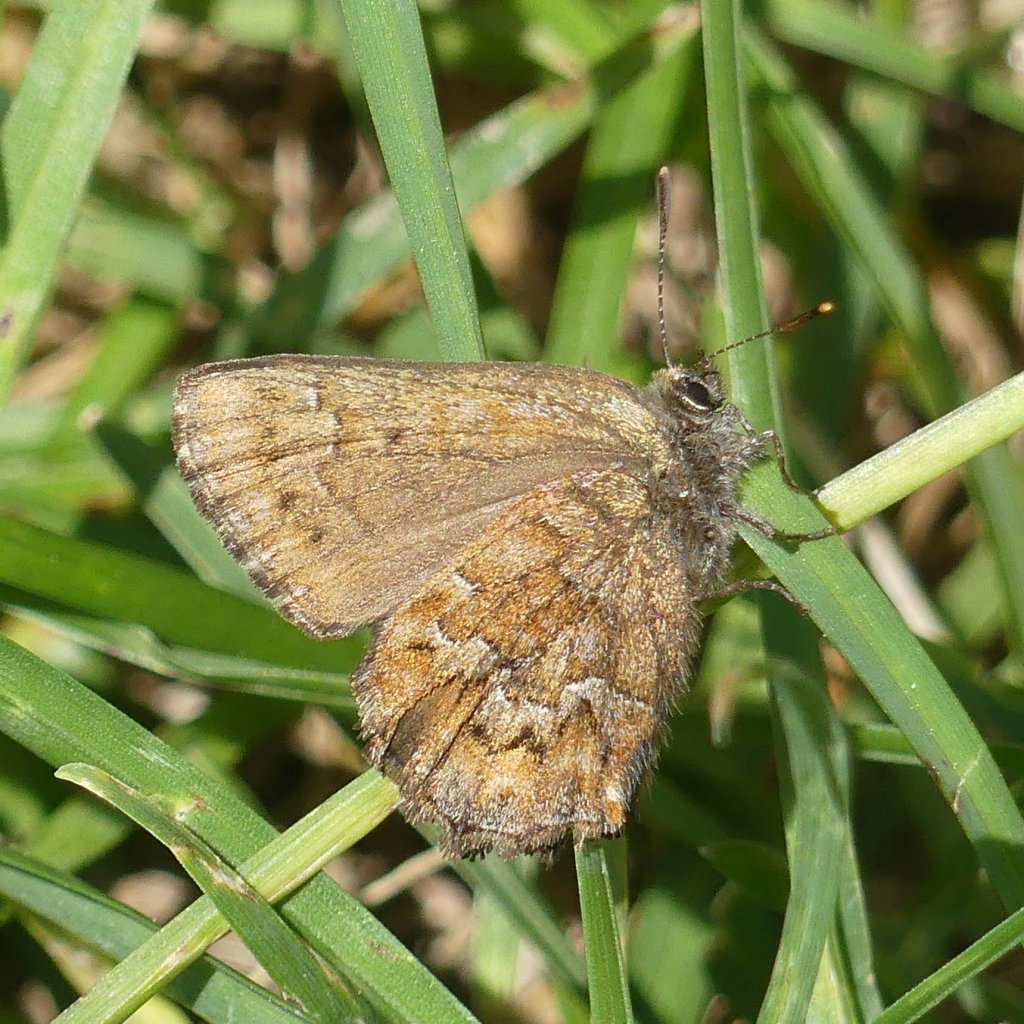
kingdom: Animalia
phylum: Arthropoda
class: Insecta
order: Lepidoptera
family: Lycaenidae
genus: Incisalia
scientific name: Incisalia niphon
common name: Eastern Pine Elfin
